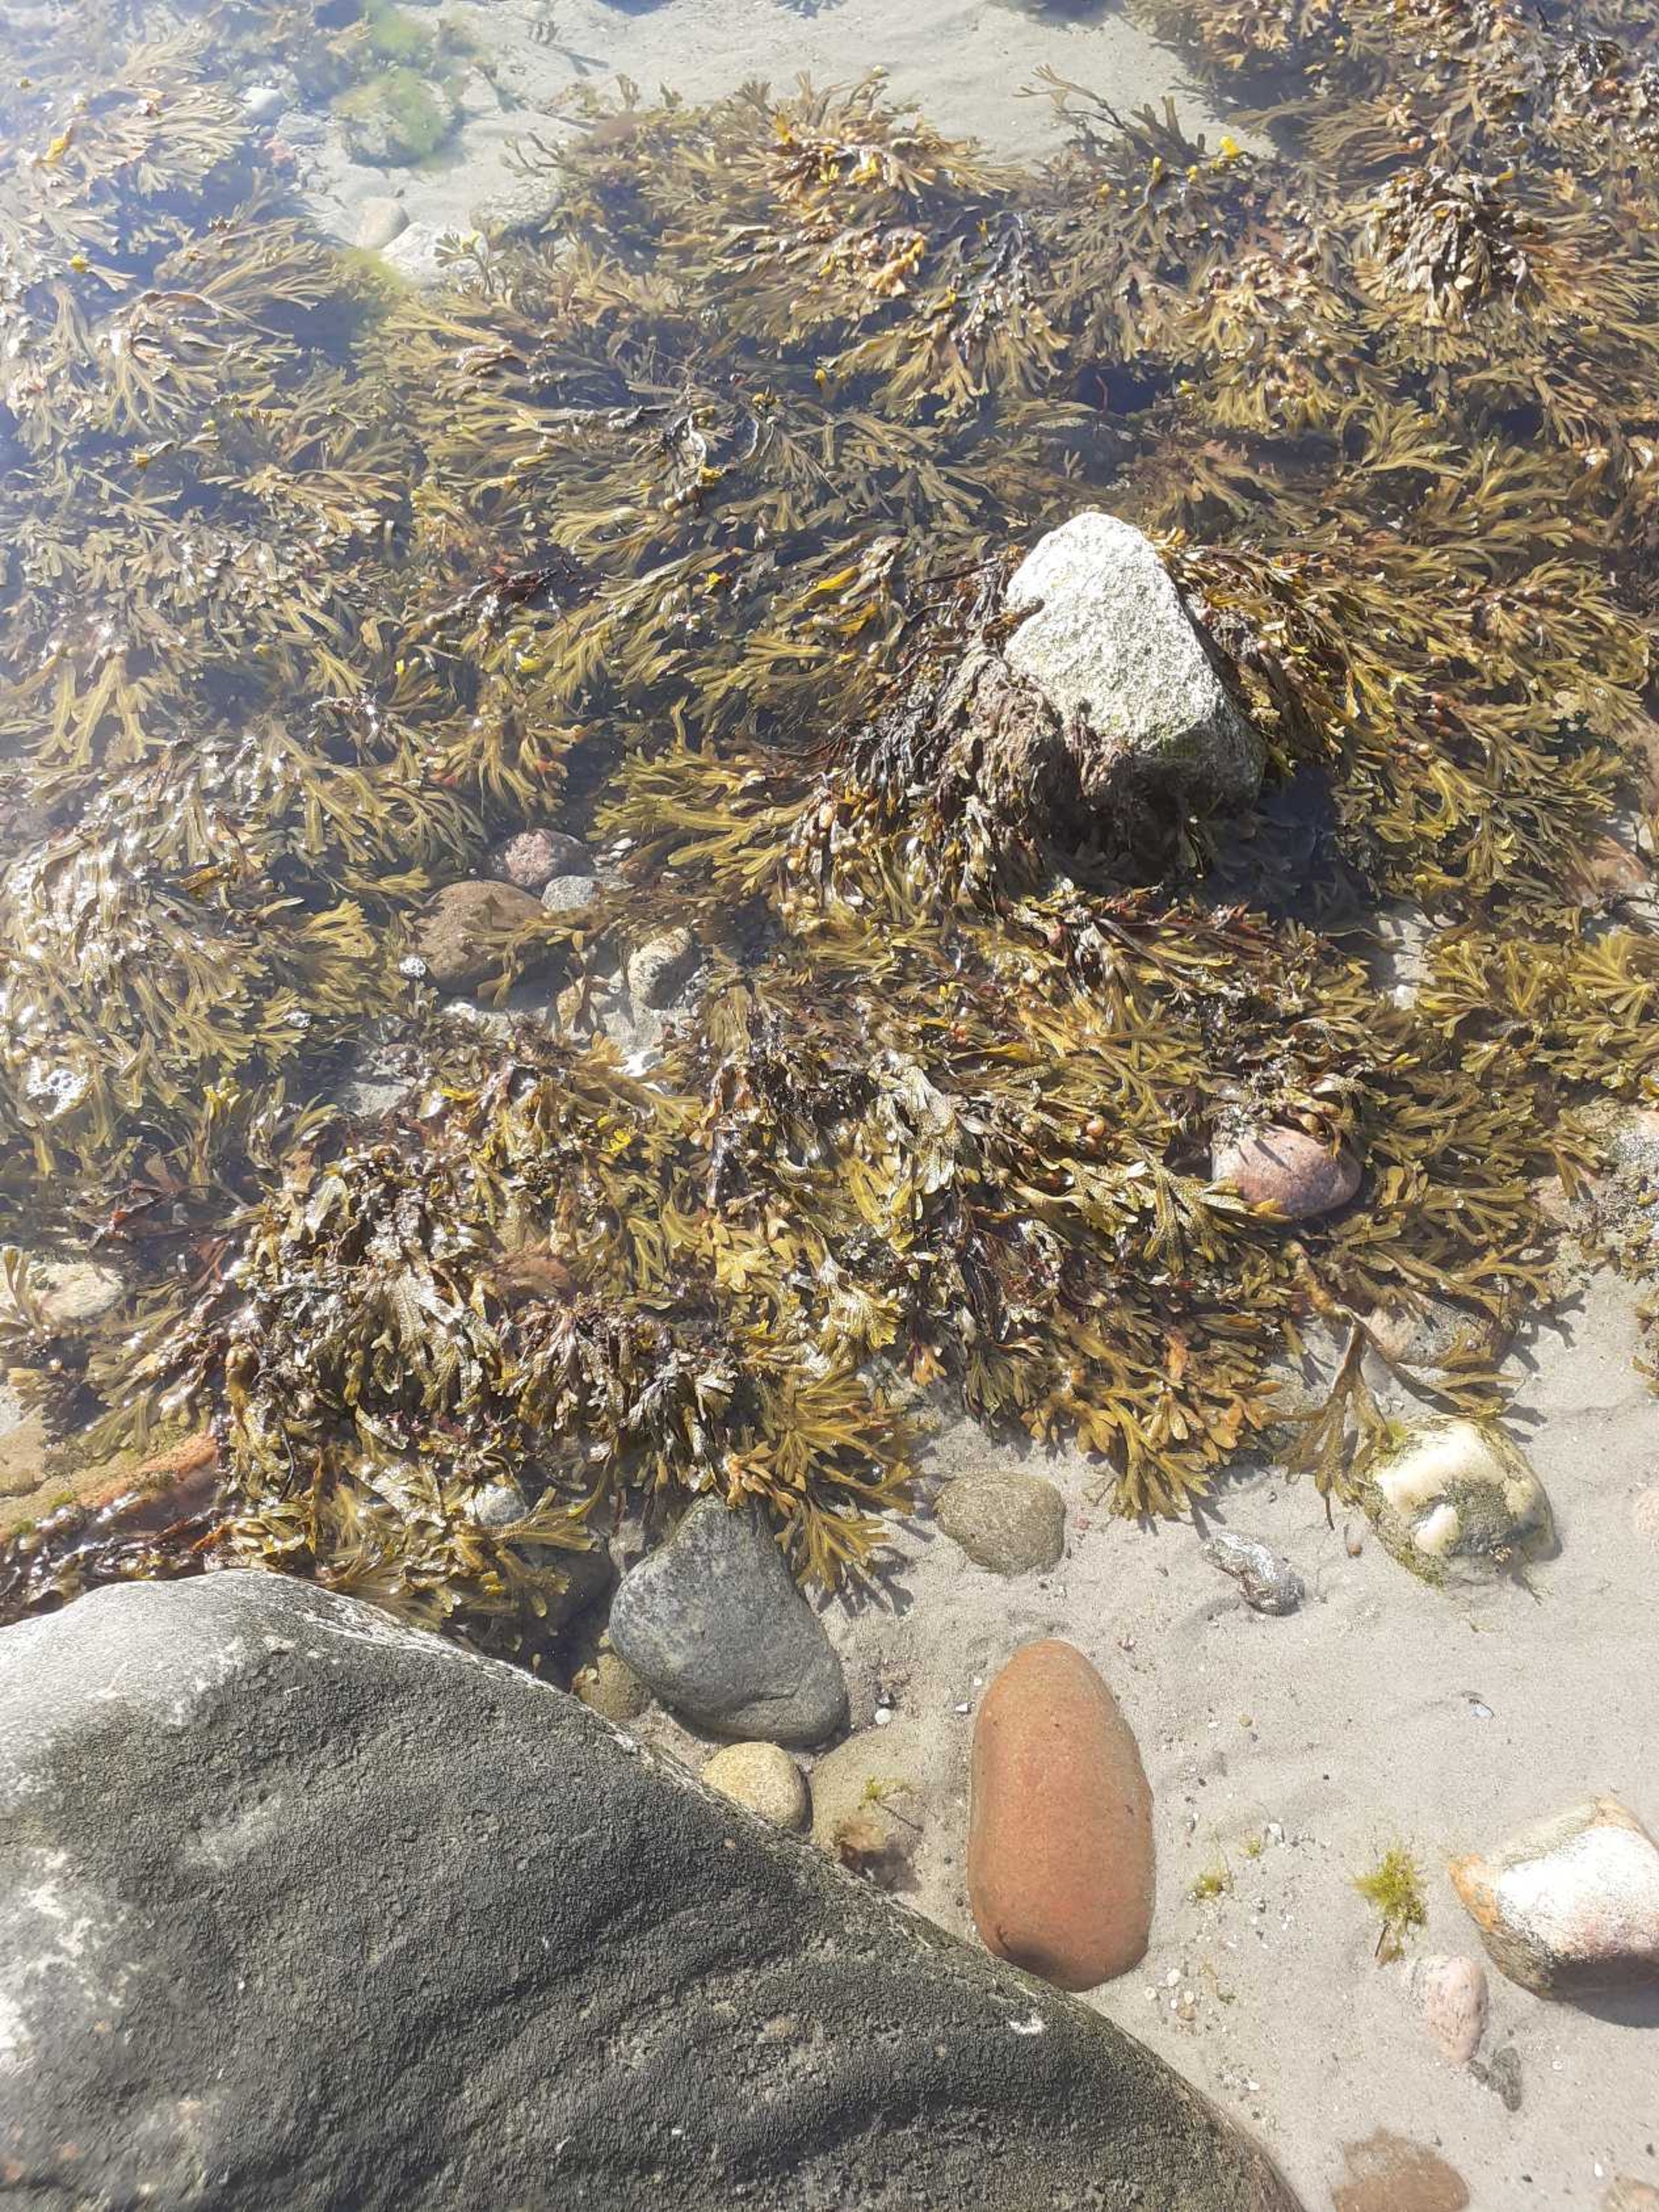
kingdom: Chromista
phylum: Ochrophyta
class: Phaeophyceae
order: Fucales
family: Fucaceae
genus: Fucus
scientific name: Fucus vesiculosus
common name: Blæretang
